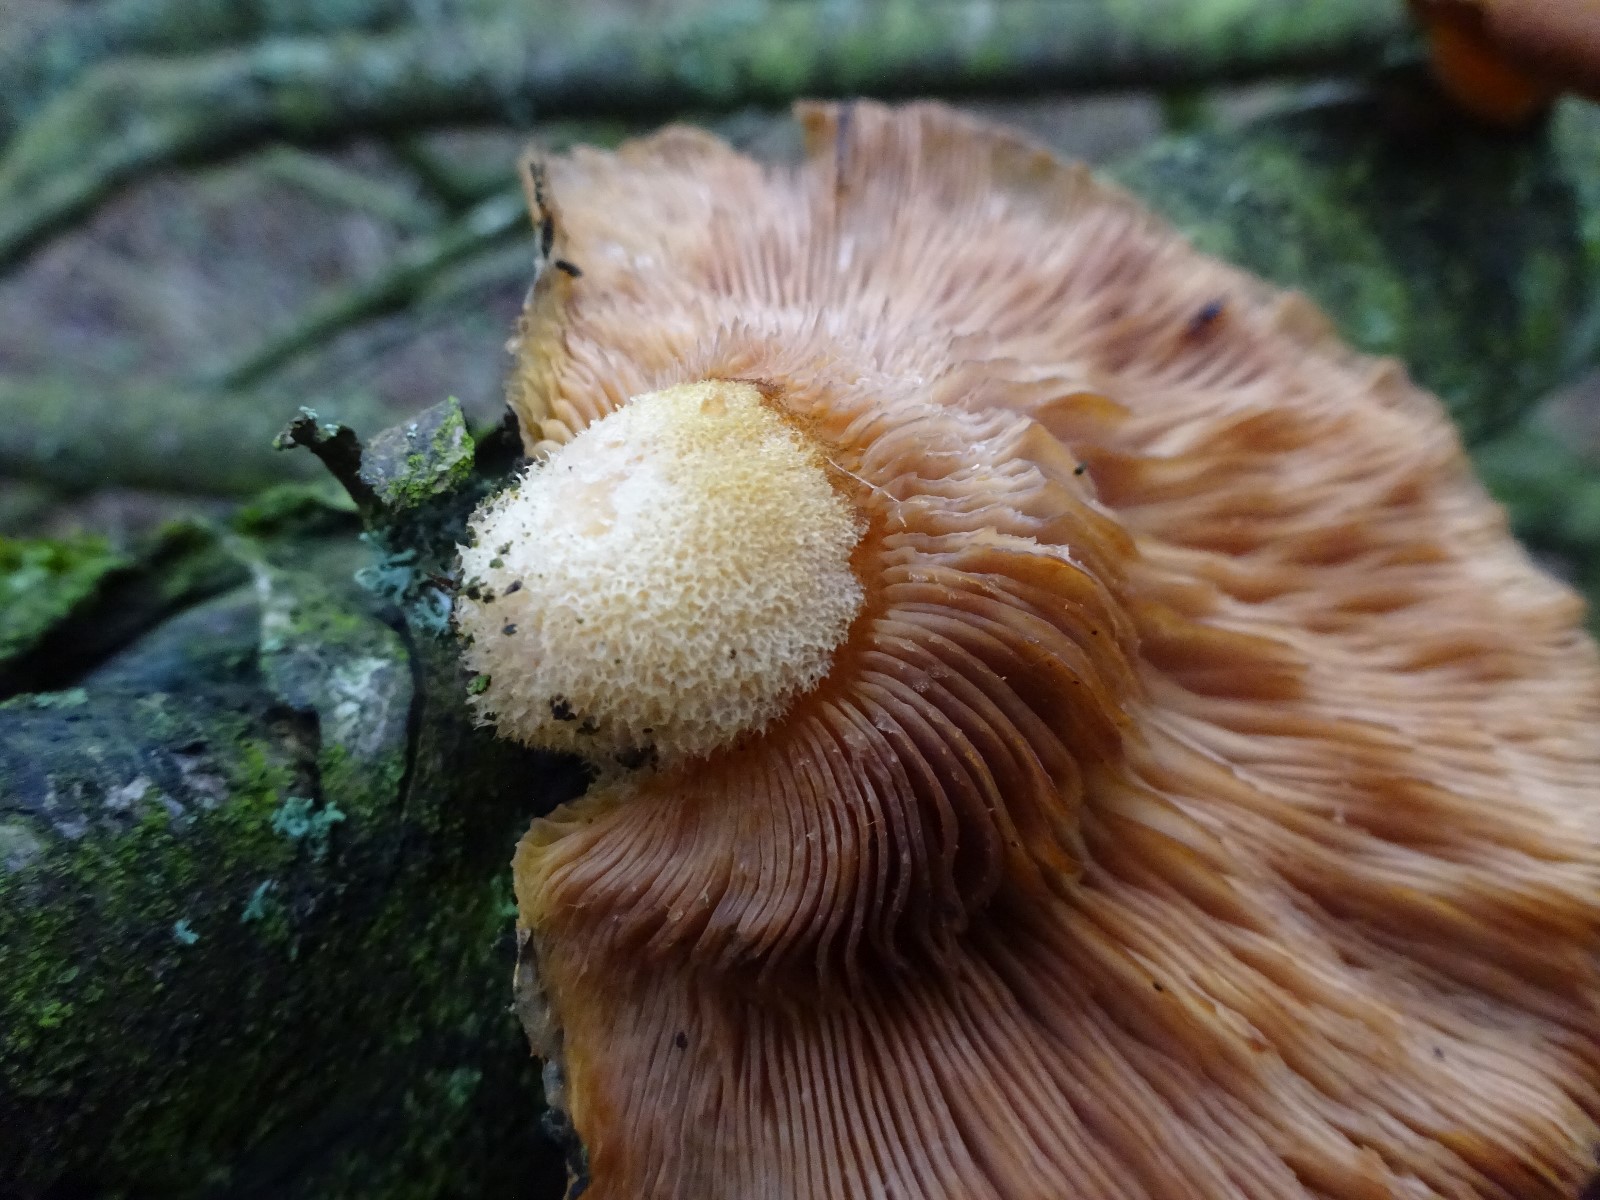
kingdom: Fungi
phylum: Basidiomycota
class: Agaricomycetes
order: Agaricales
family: Sarcomyxaceae
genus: Sarcomyxa
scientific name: Sarcomyxa serotina
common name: gummihat
